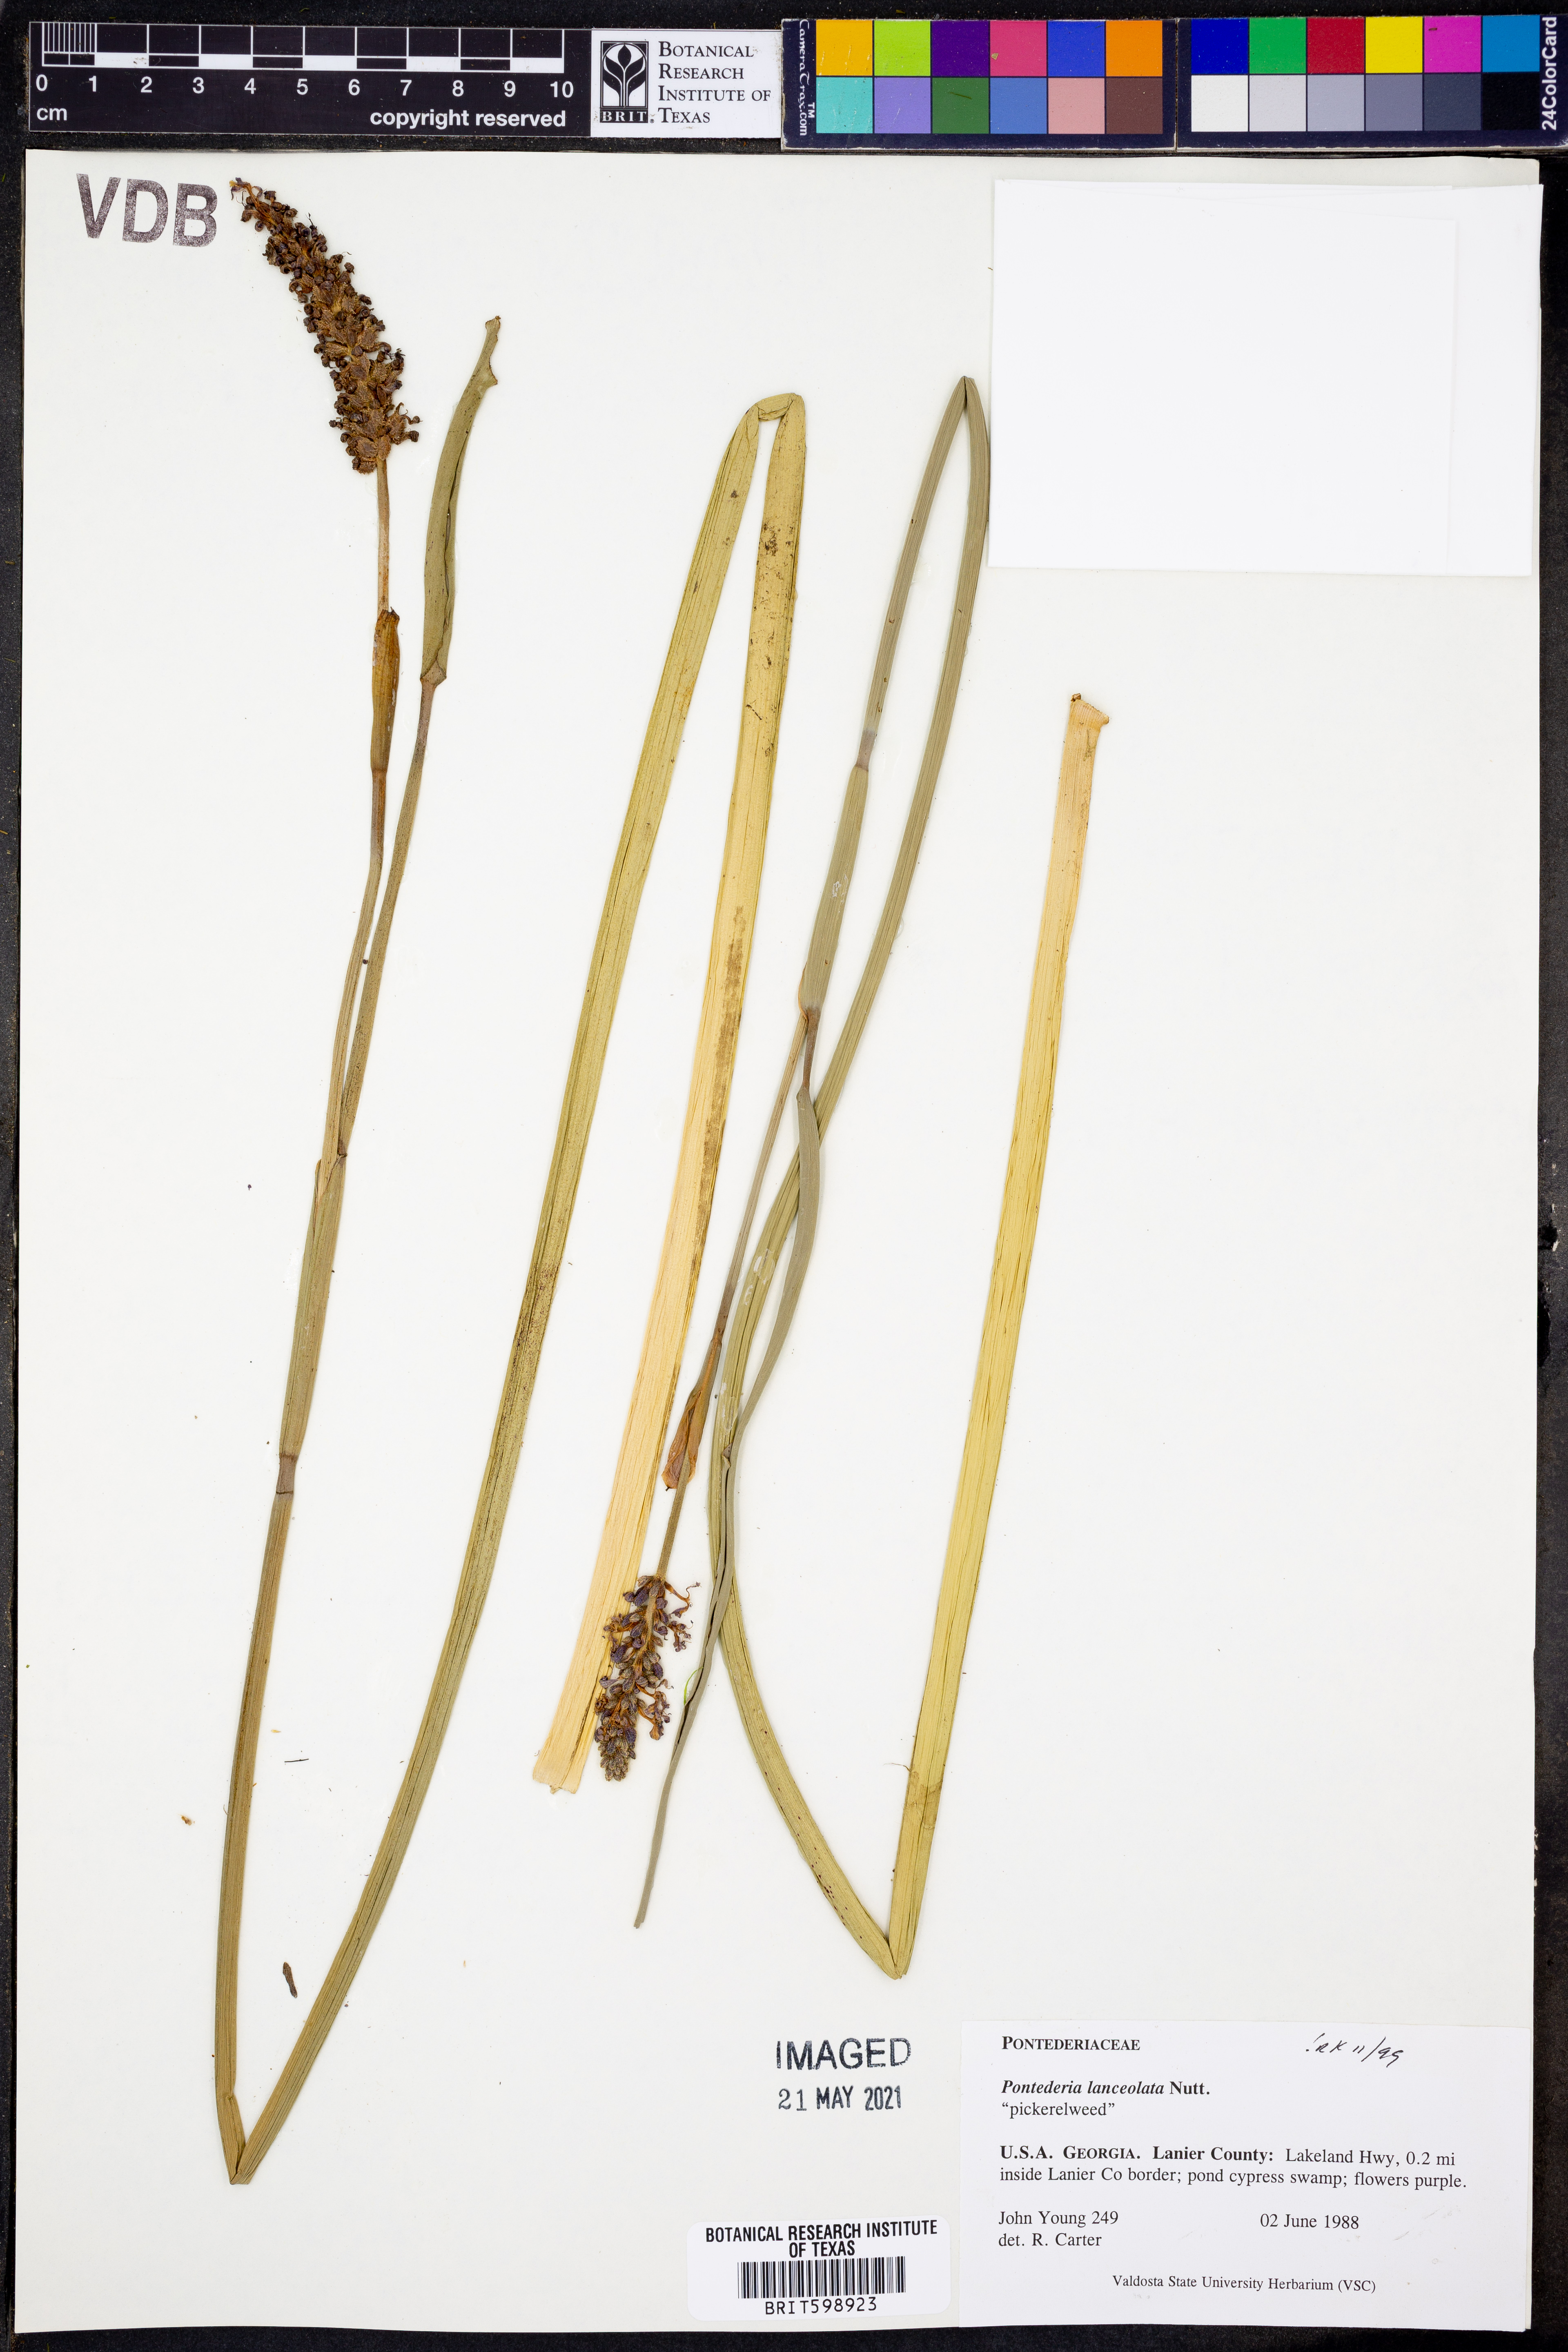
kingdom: Plantae
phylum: Tracheophyta
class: Liliopsida
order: Commelinales
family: Pontederiaceae
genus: Pontederia
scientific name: Pontederia cordata
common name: Pickerelweed
